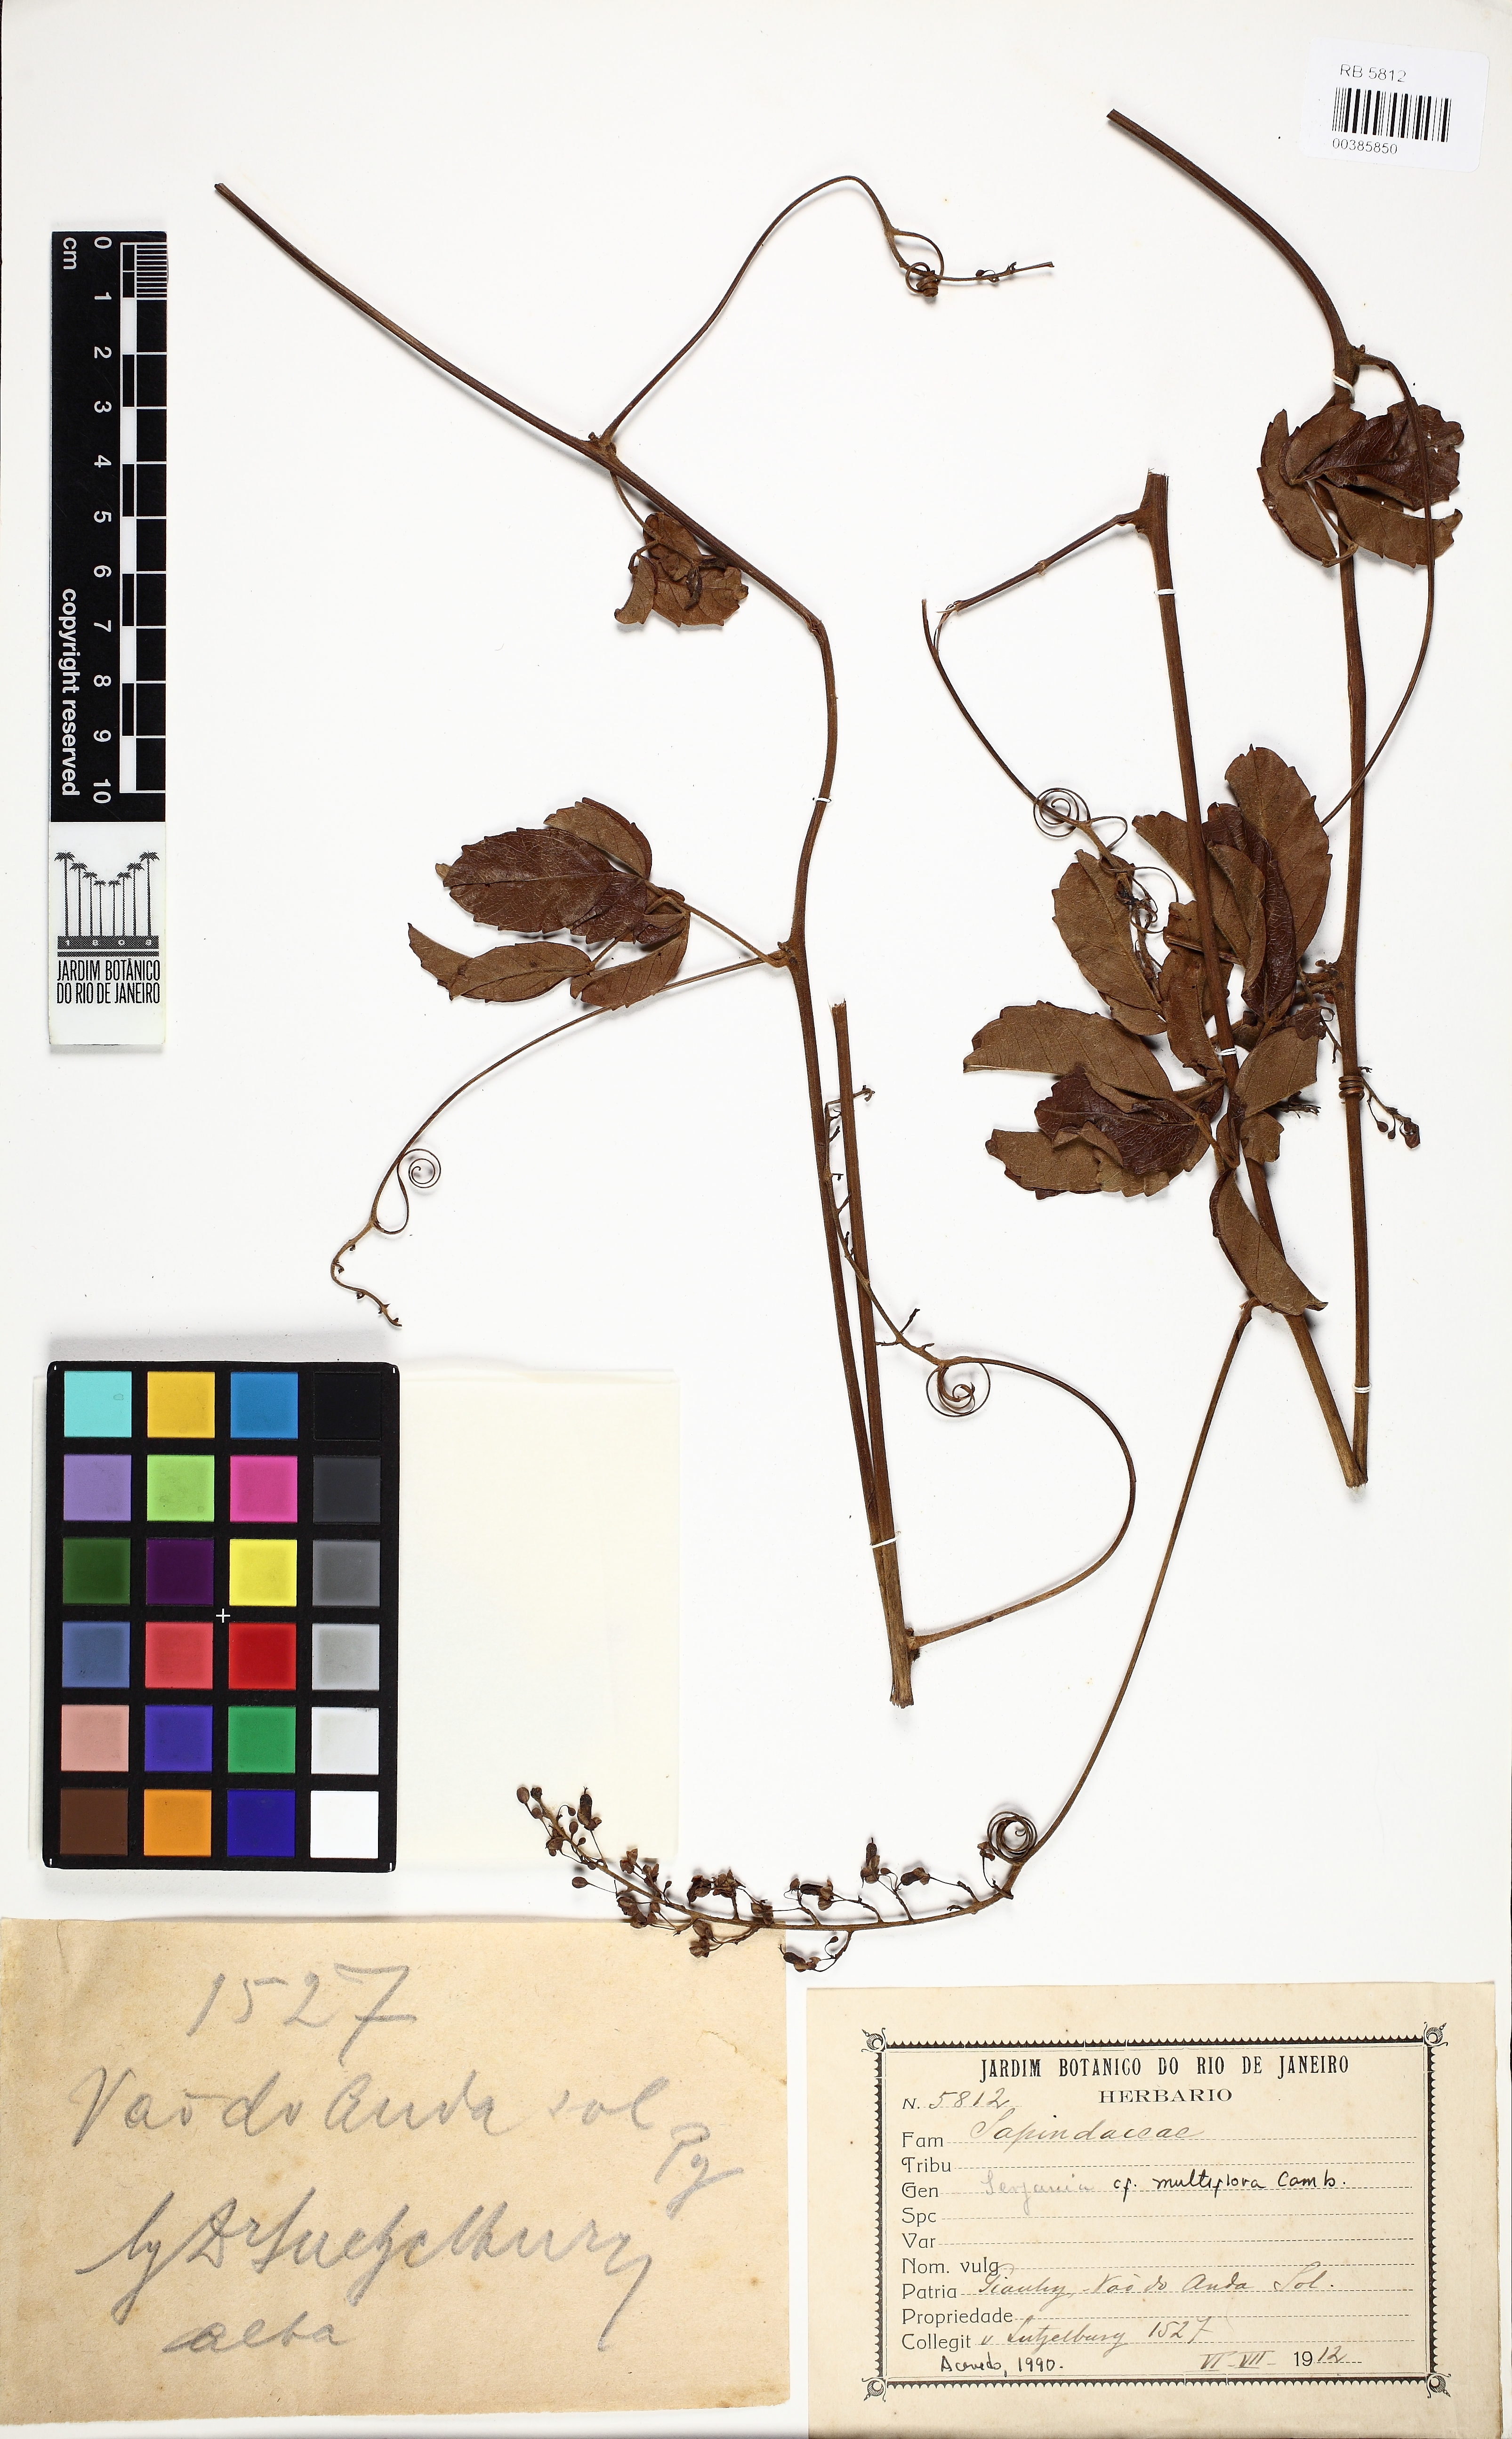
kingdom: Plantae
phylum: Tracheophyta
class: Magnoliopsida
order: Sapindales
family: Sapindaceae
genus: Serjania
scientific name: Serjania multiflora
